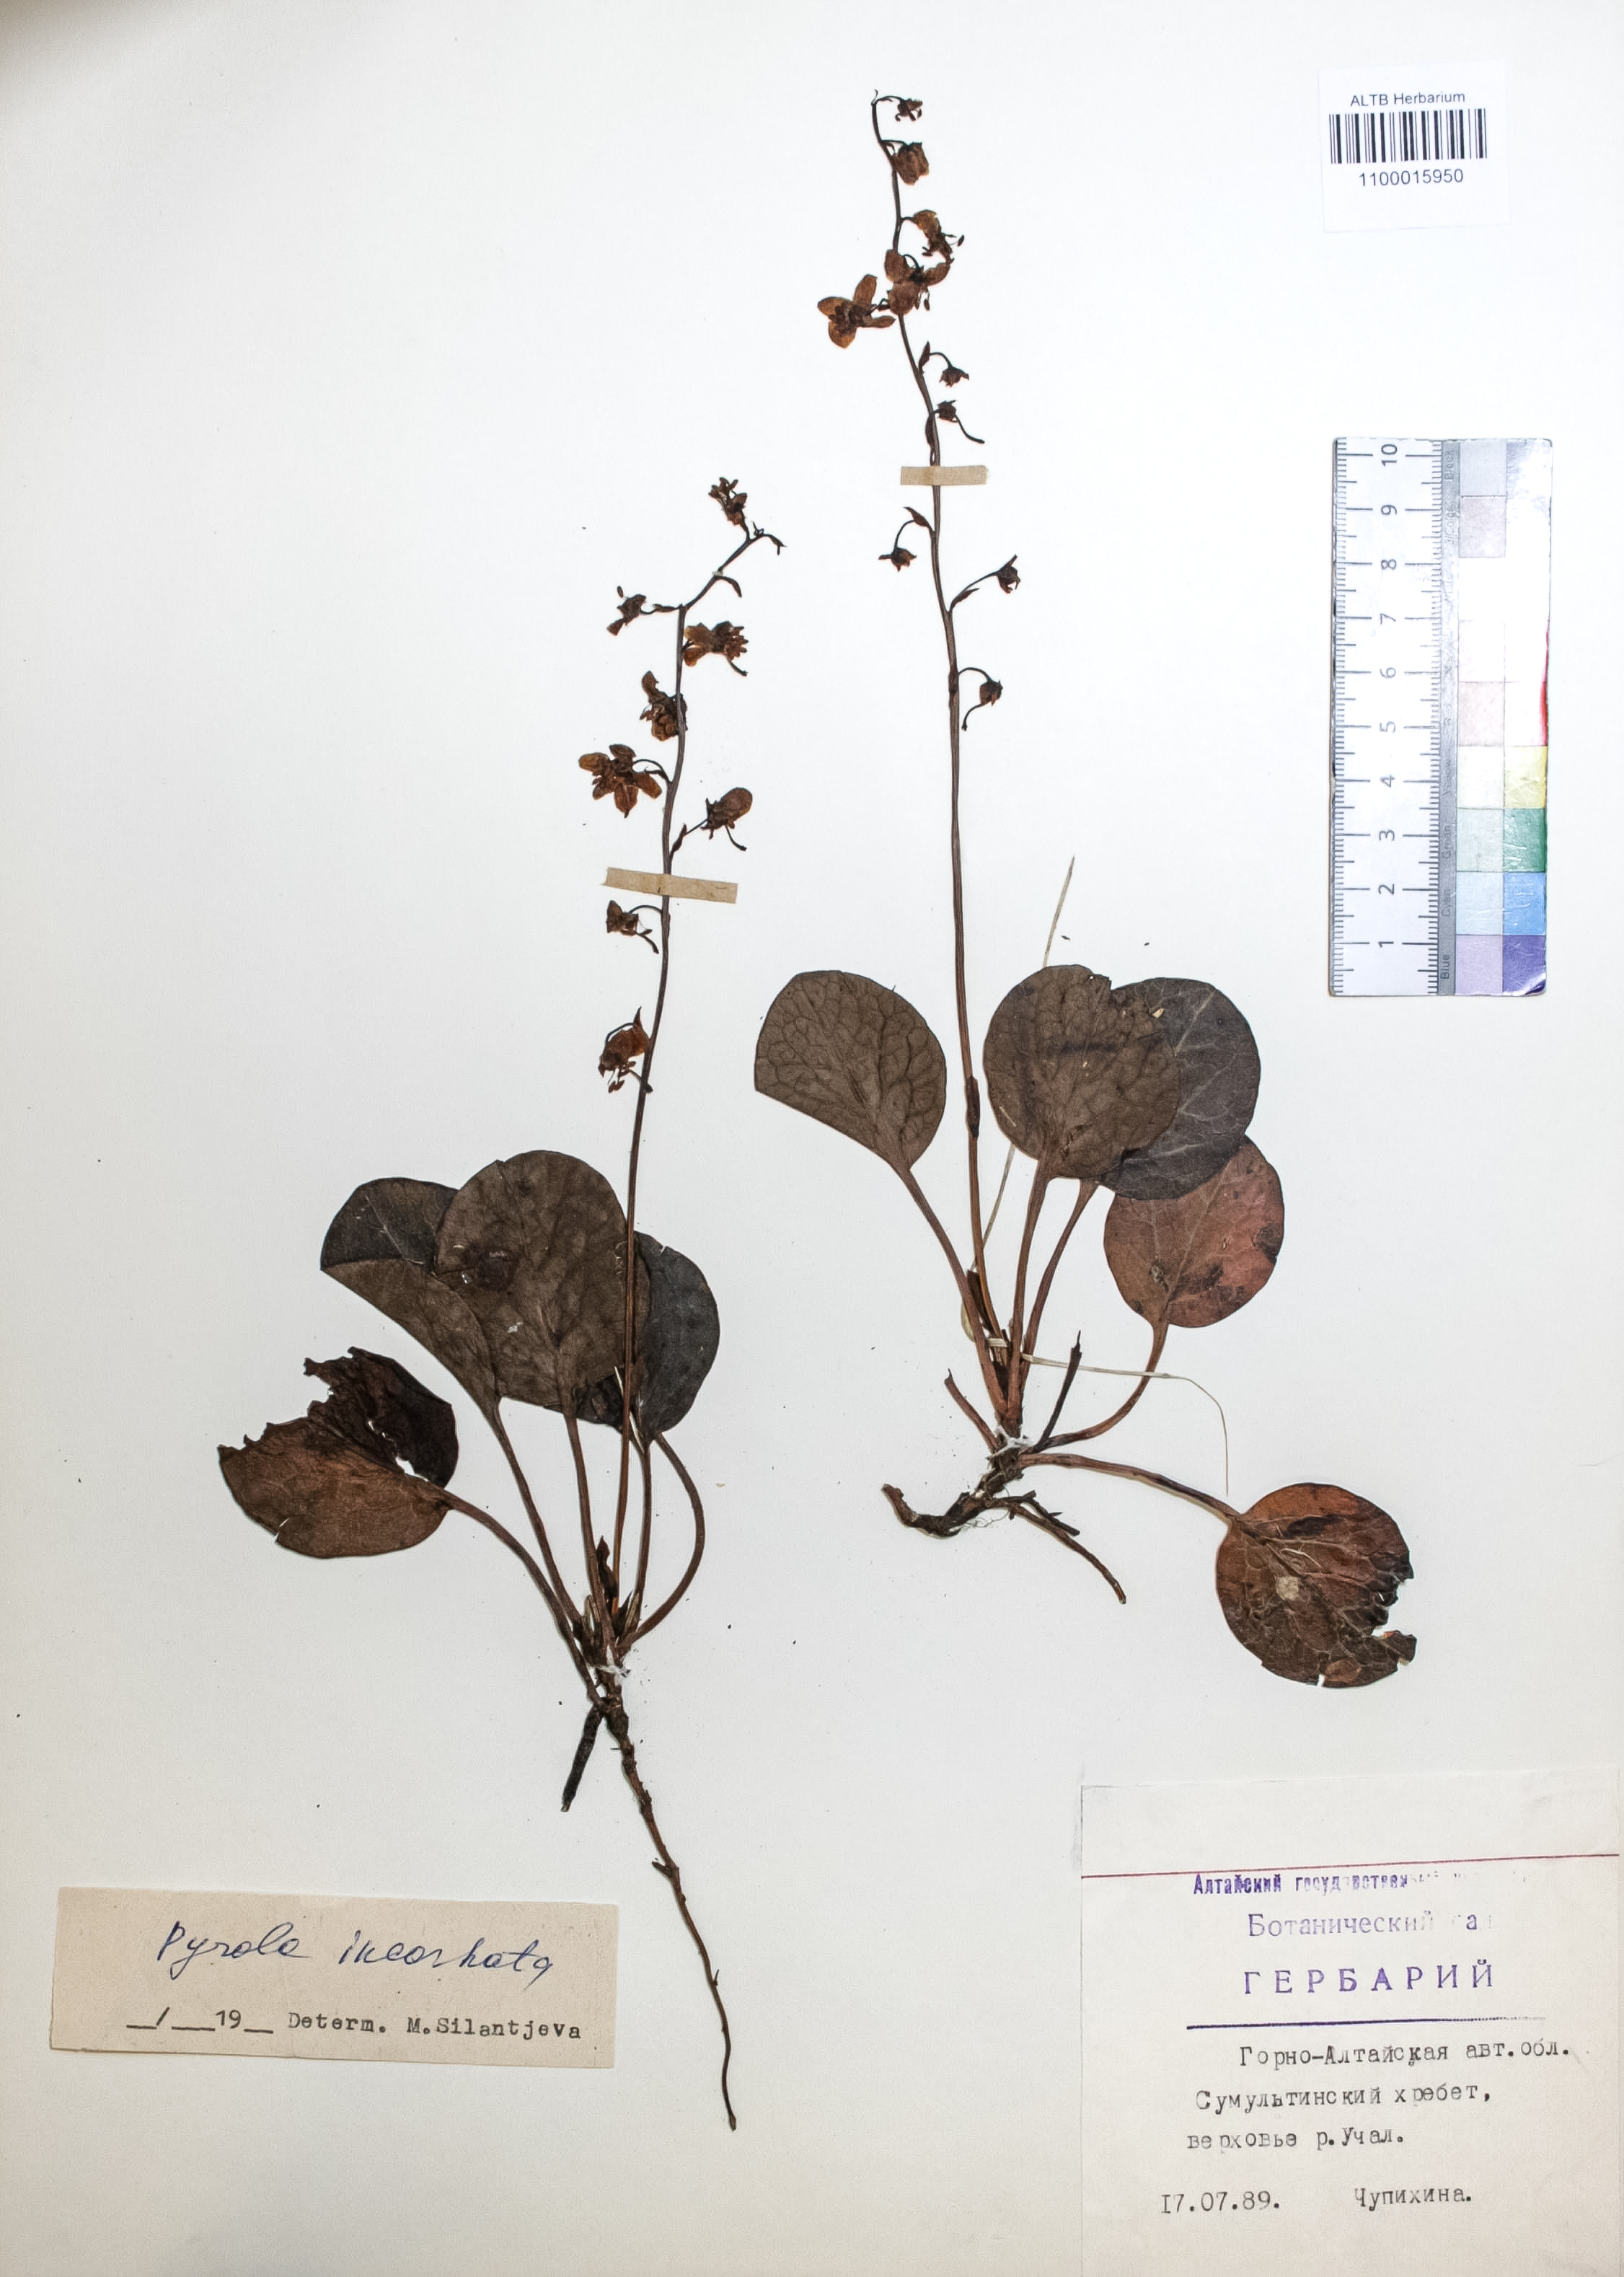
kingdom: Plantae
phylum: Tracheophyta
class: Magnoliopsida
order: Ericales
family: Ericaceae
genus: Pyrola
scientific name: Pyrola asarifolia
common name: Bog wintergreen
